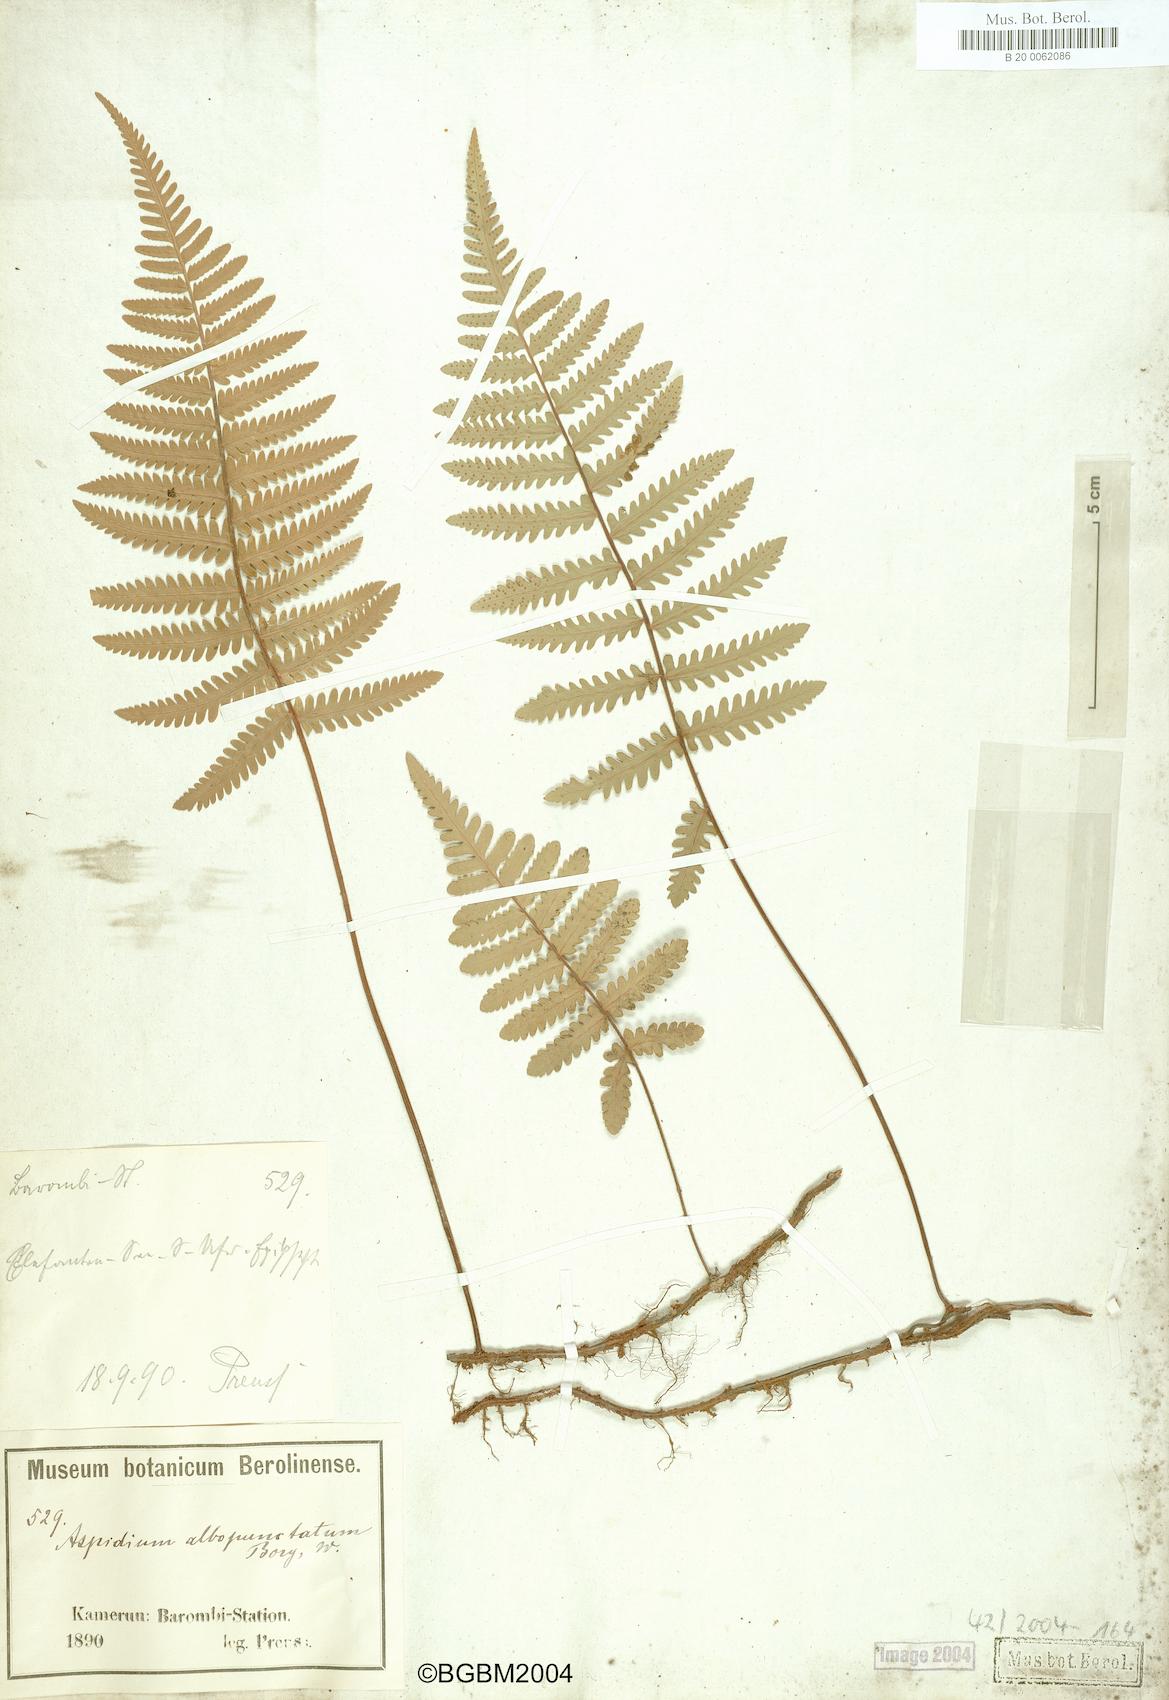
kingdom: Plantae
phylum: Tracheophyta
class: Polypodiopsida
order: Polypodiales
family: Tectariaceae
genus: Arthropteris
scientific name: Arthropteris orientalis
